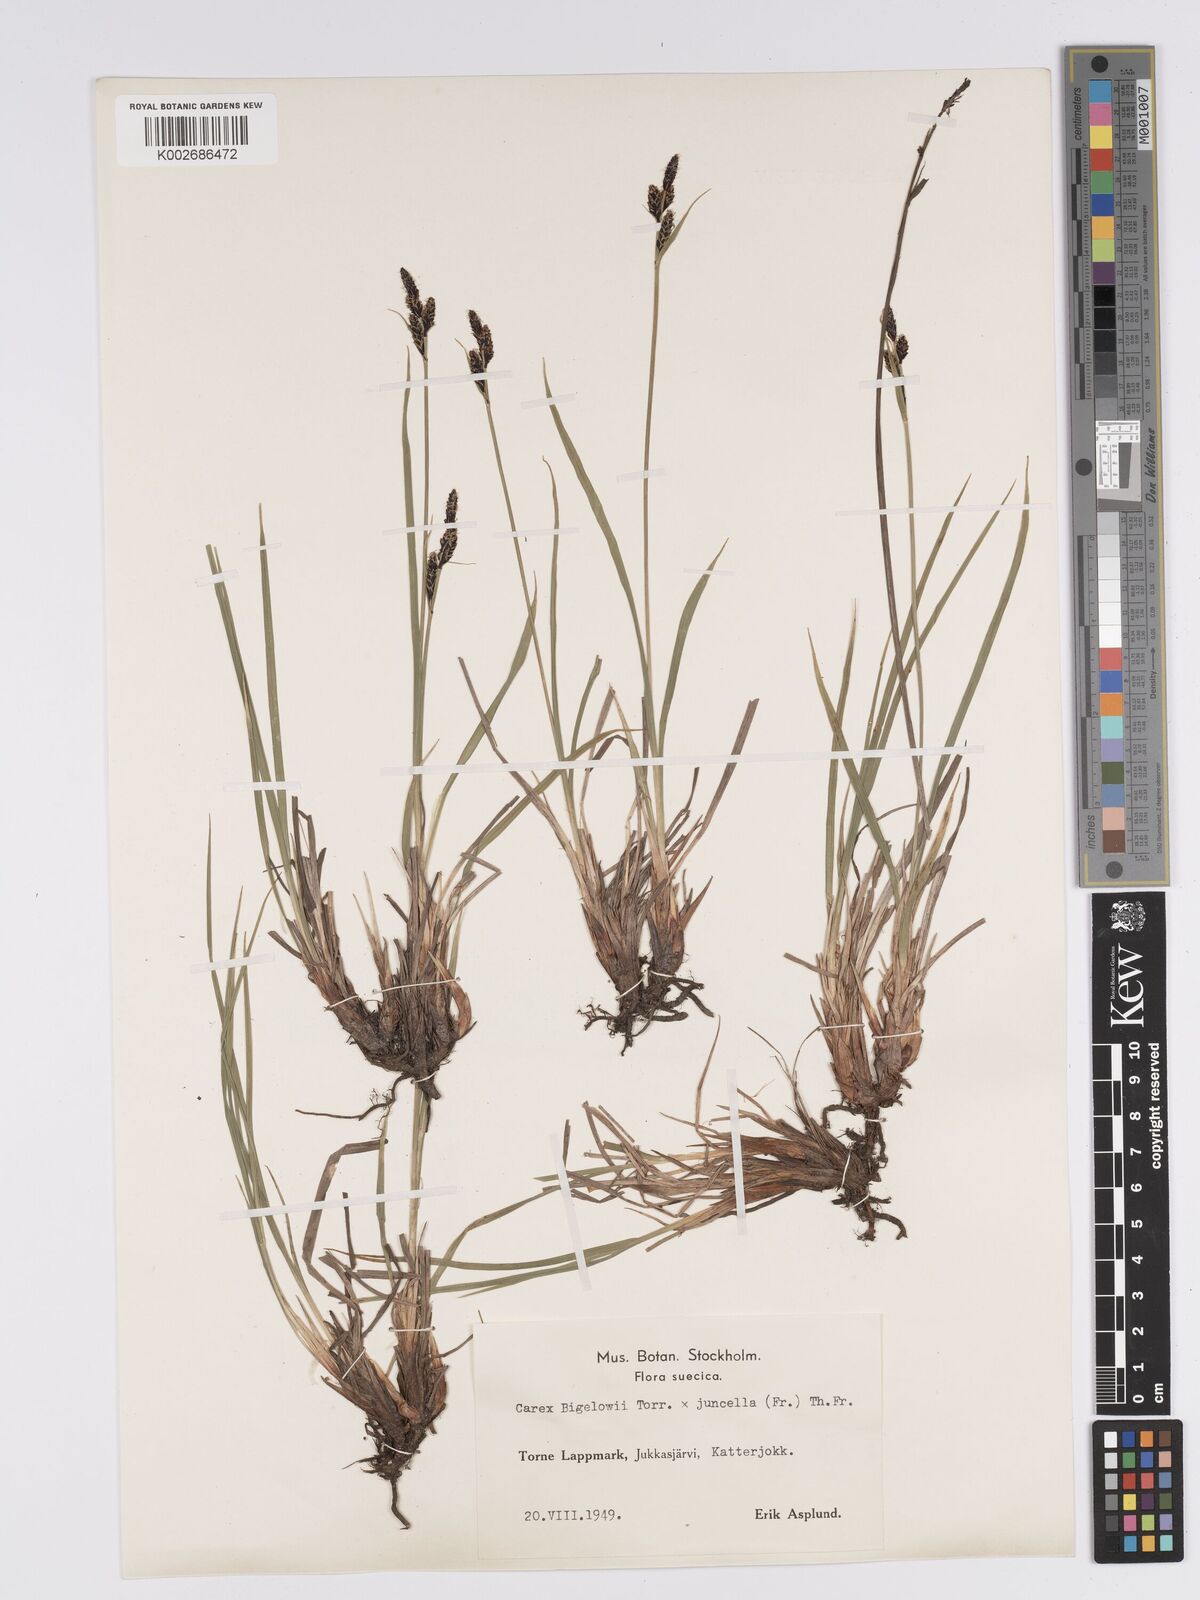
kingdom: Plantae
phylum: Tracheophyta
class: Liliopsida
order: Poales
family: Cyperaceae
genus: Carex
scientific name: Carex bigelowii
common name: Stiff sedge
